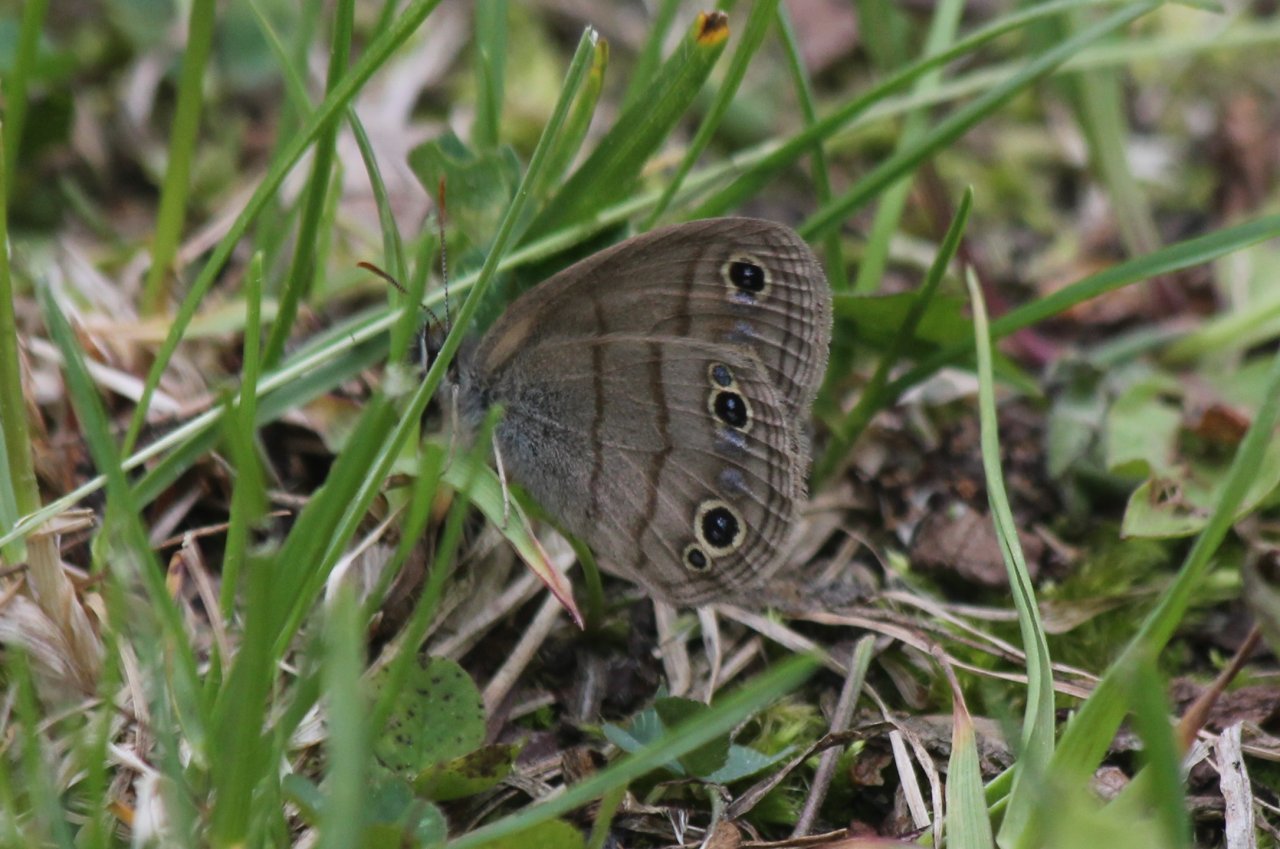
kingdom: Animalia
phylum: Arthropoda
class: Insecta
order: Lepidoptera
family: Nymphalidae
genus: Euptychia
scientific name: Euptychia cymela
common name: Little Wood Satyr
